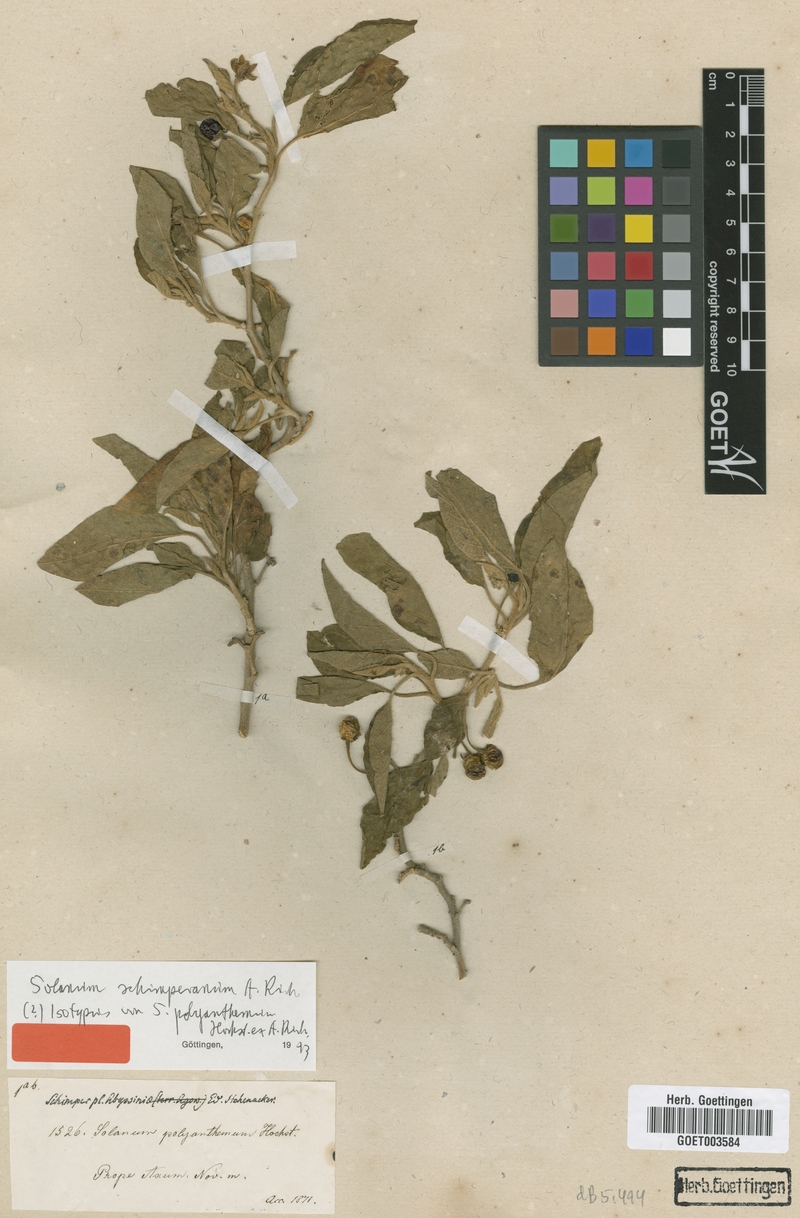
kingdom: Plantae
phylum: Tracheophyta
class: Magnoliopsida
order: Solanales
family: Solanaceae
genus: Solanum
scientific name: Solanum schimperianum
